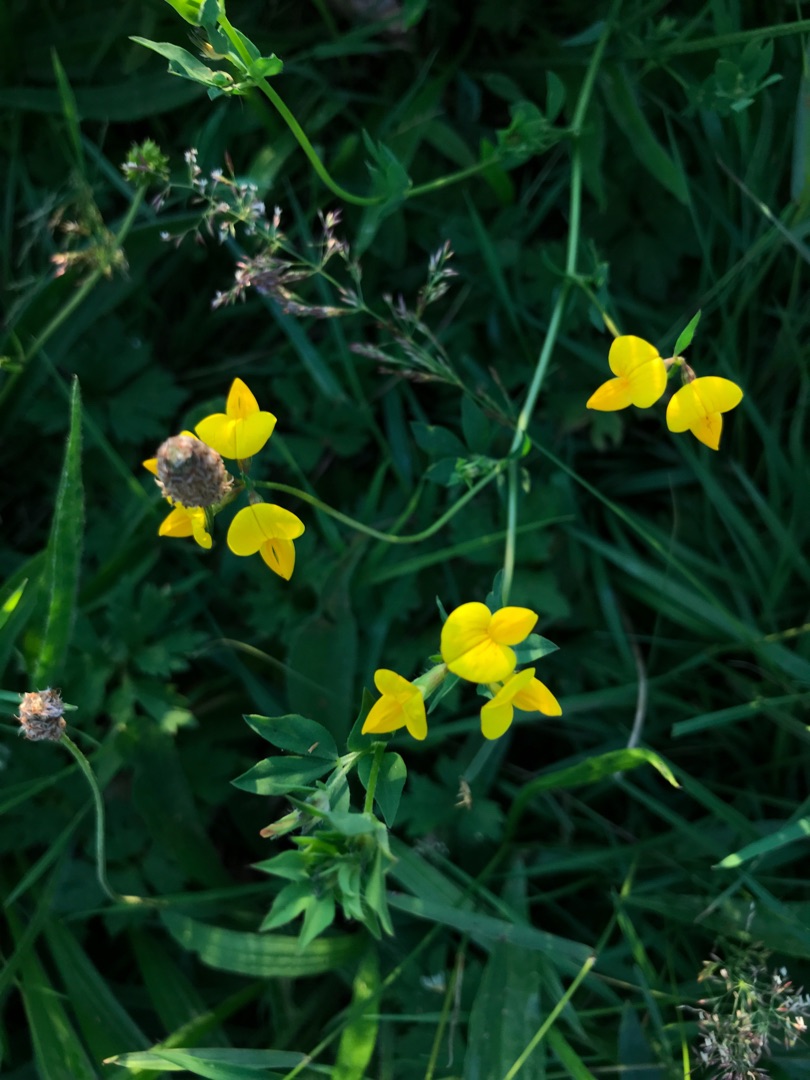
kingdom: Plantae
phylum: Tracheophyta
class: Magnoliopsida
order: Fabales
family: Fabaceae
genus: Lotus
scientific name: Lotus corniculatus
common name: Almindelig kællingetand
